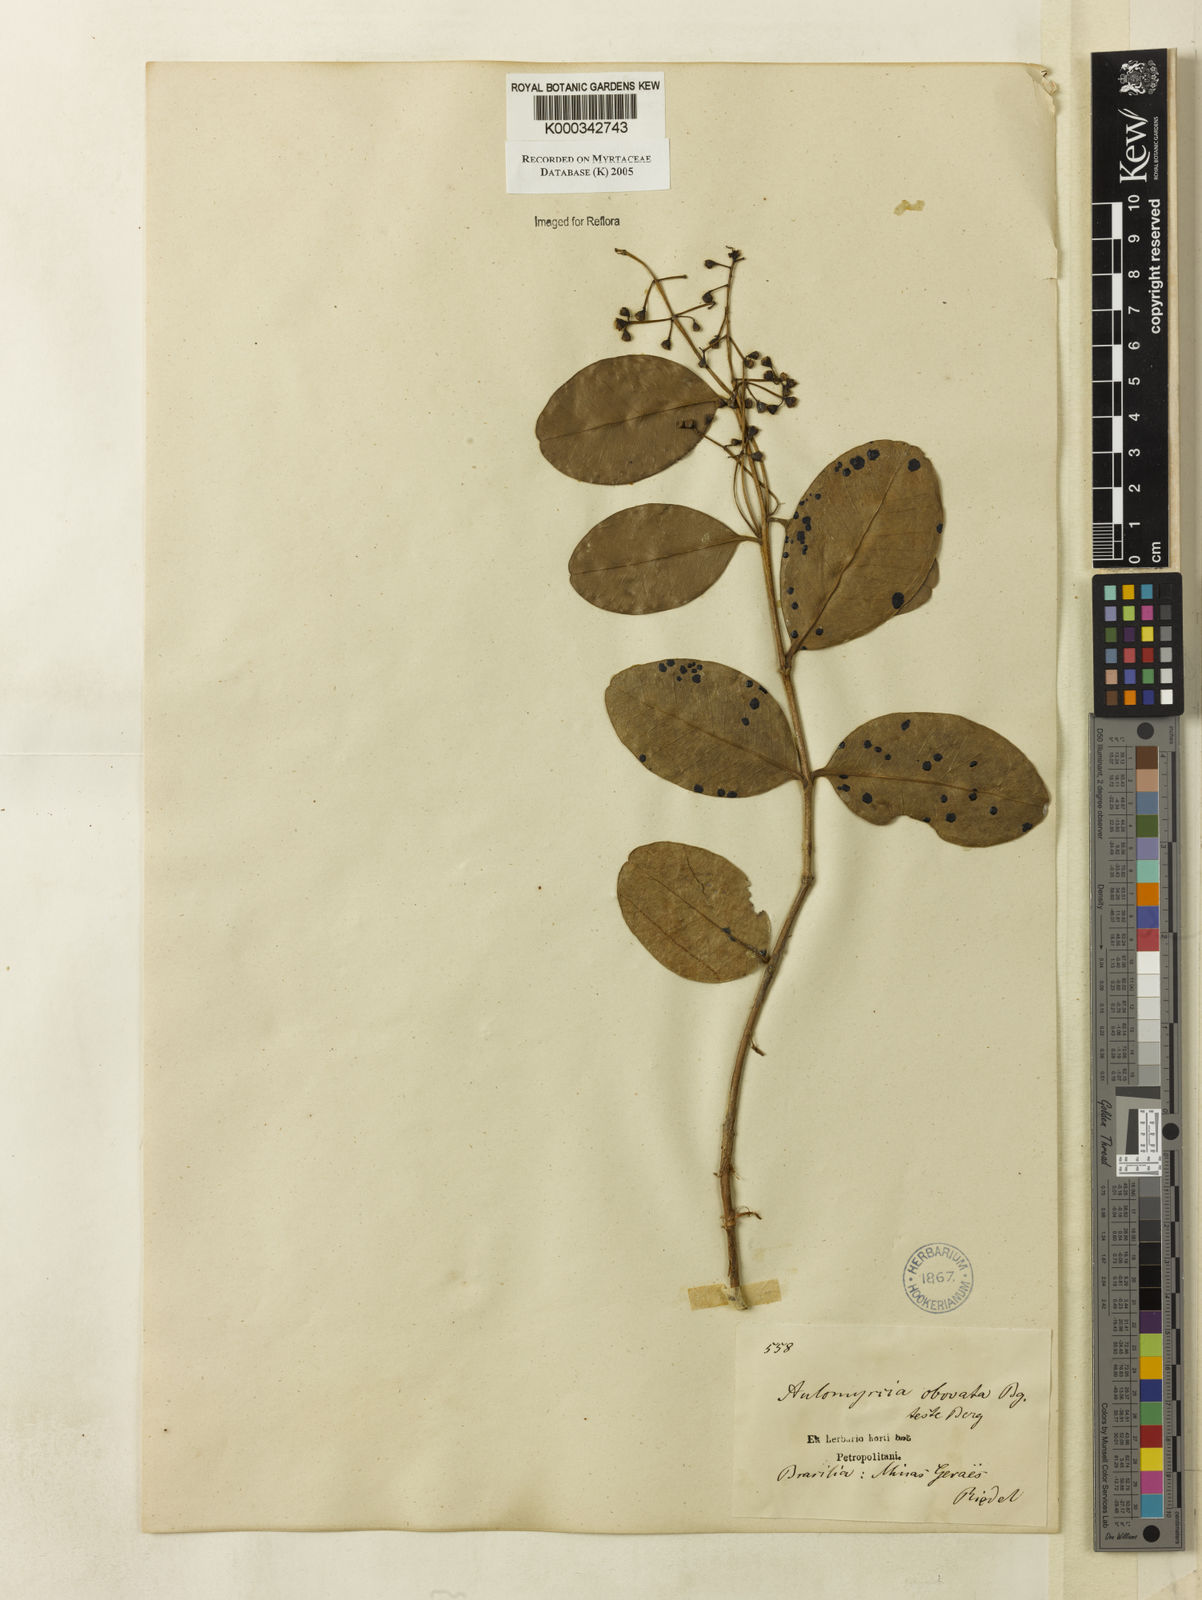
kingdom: Plantae
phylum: Tracheophyta
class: Magnoliopsida
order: Myrtales
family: Myrtaceae
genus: Myrcia
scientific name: Myrcia obovata
